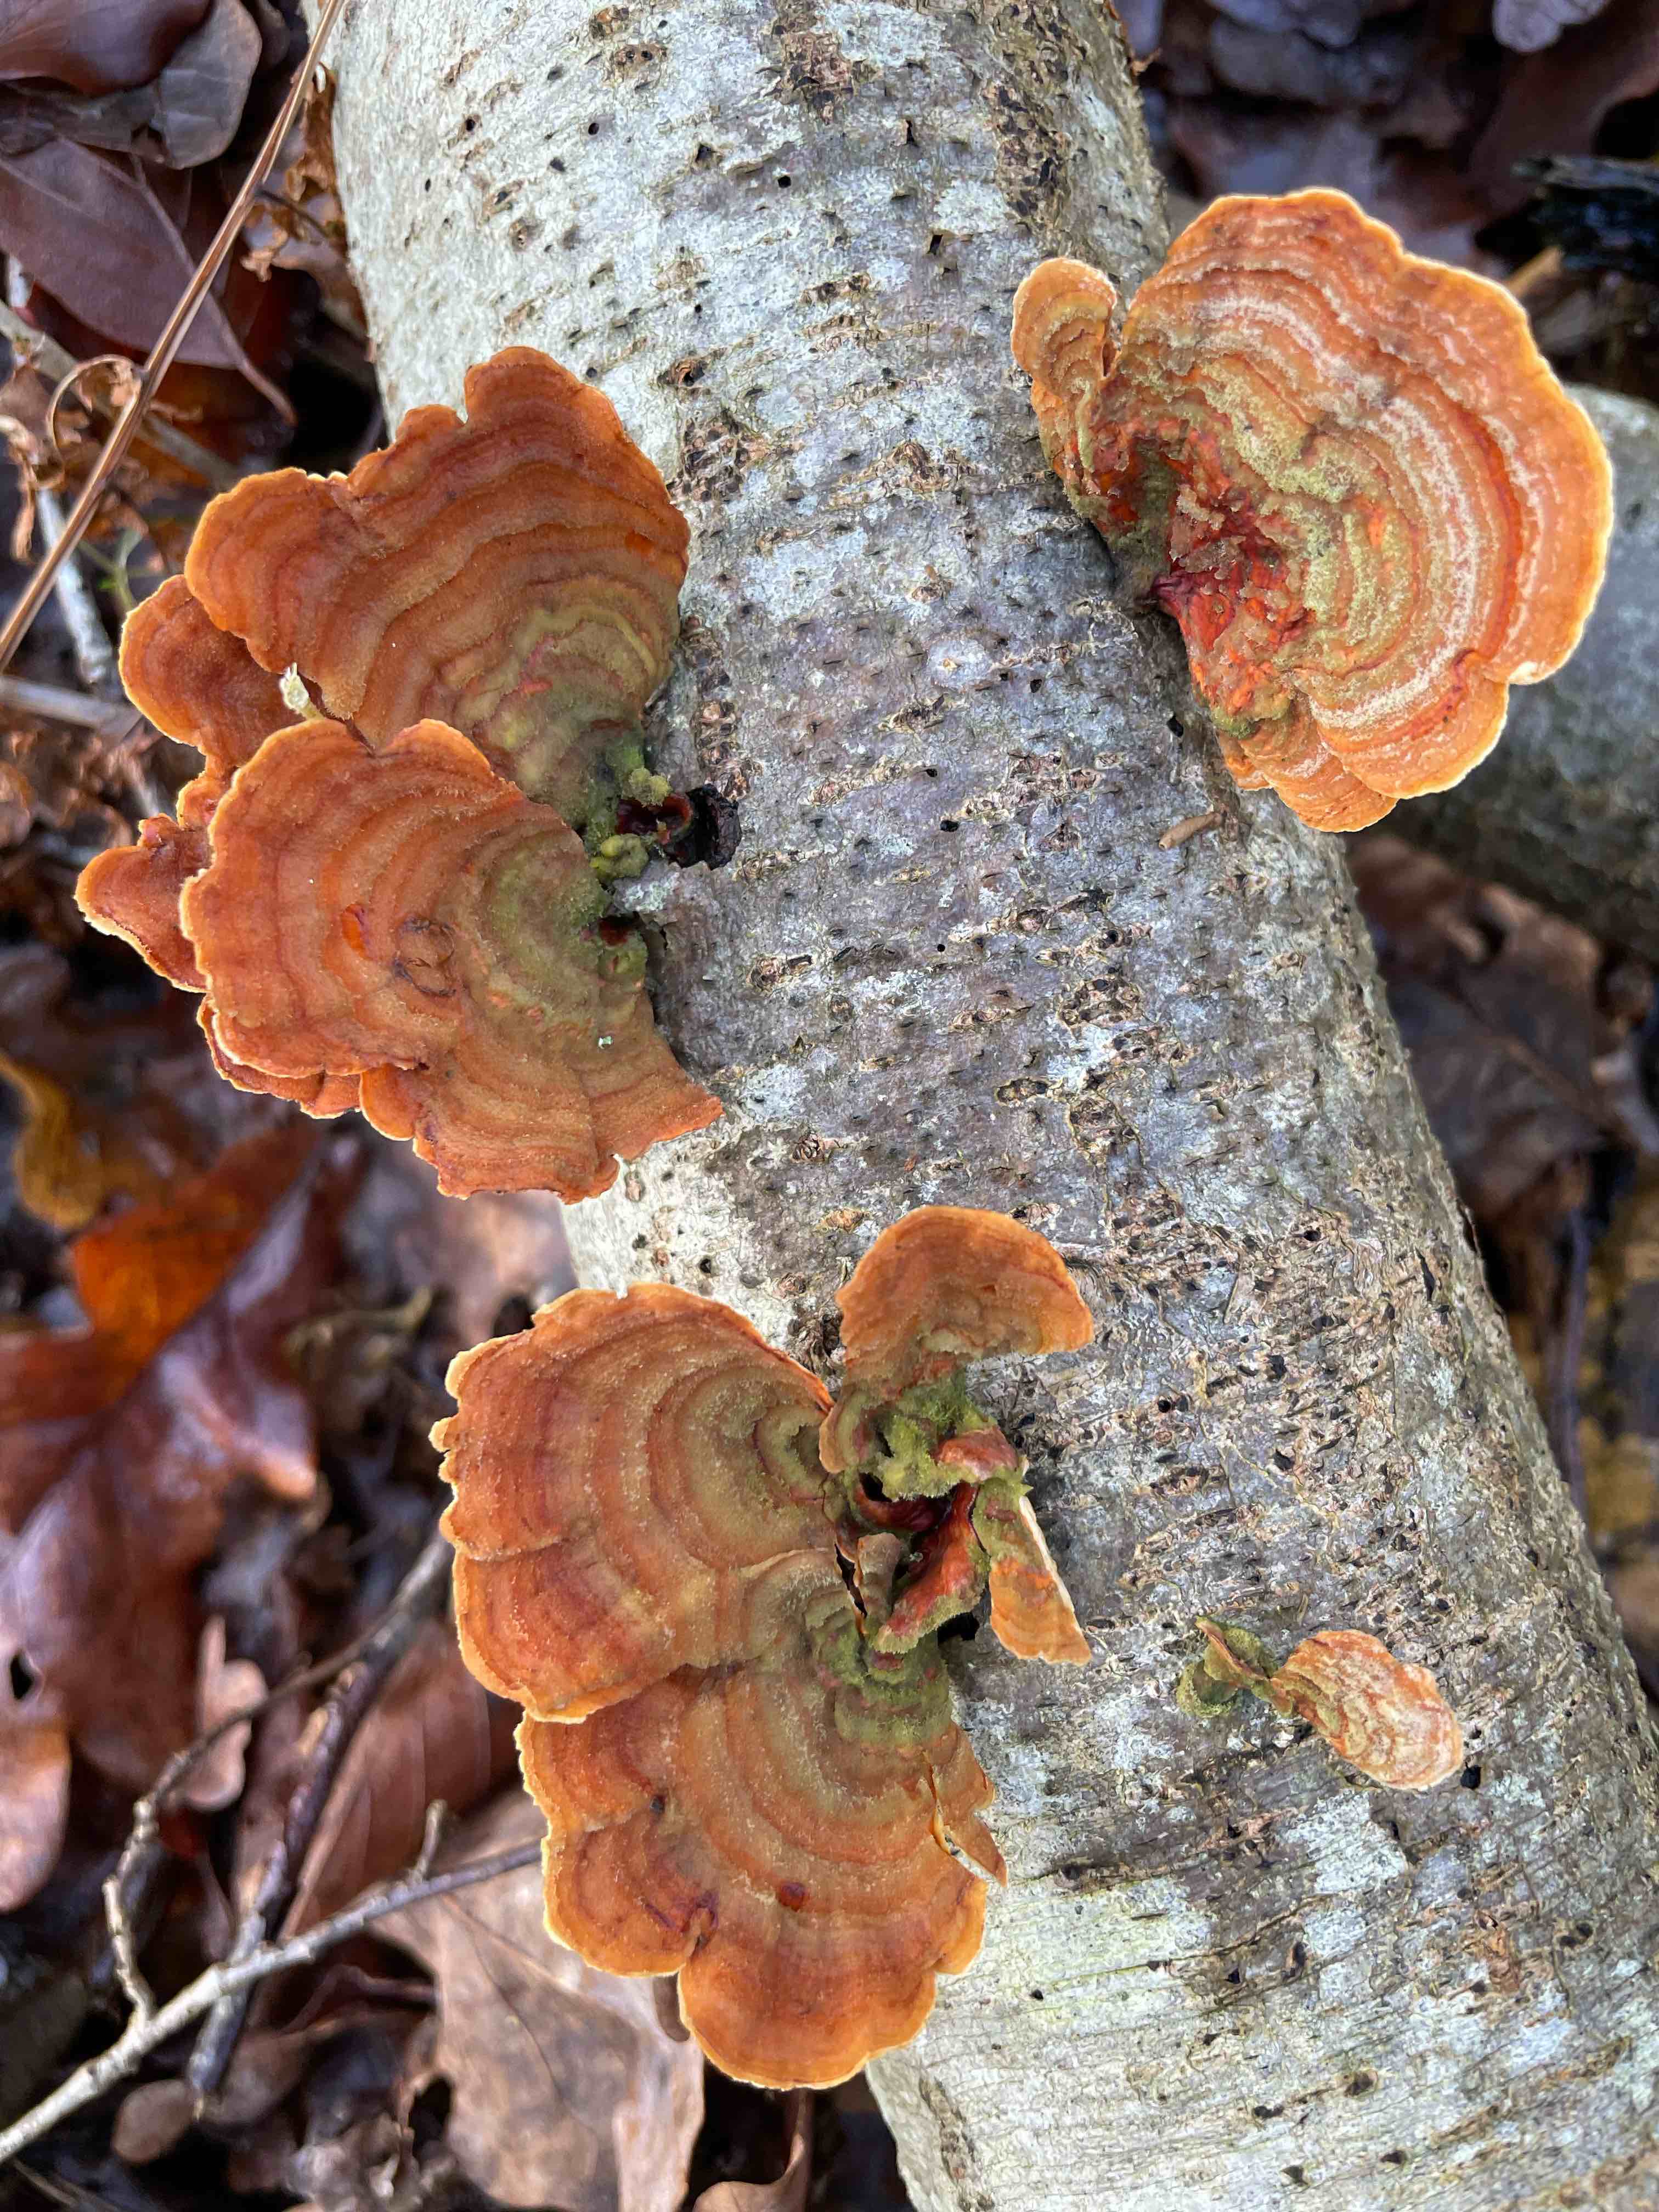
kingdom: Fungi
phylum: Basidiomycota
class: Agaricomycetes
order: Russulales
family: Stereaceae
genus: Stereum
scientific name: Stereum subtomentosum
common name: smuk lædersvamp
